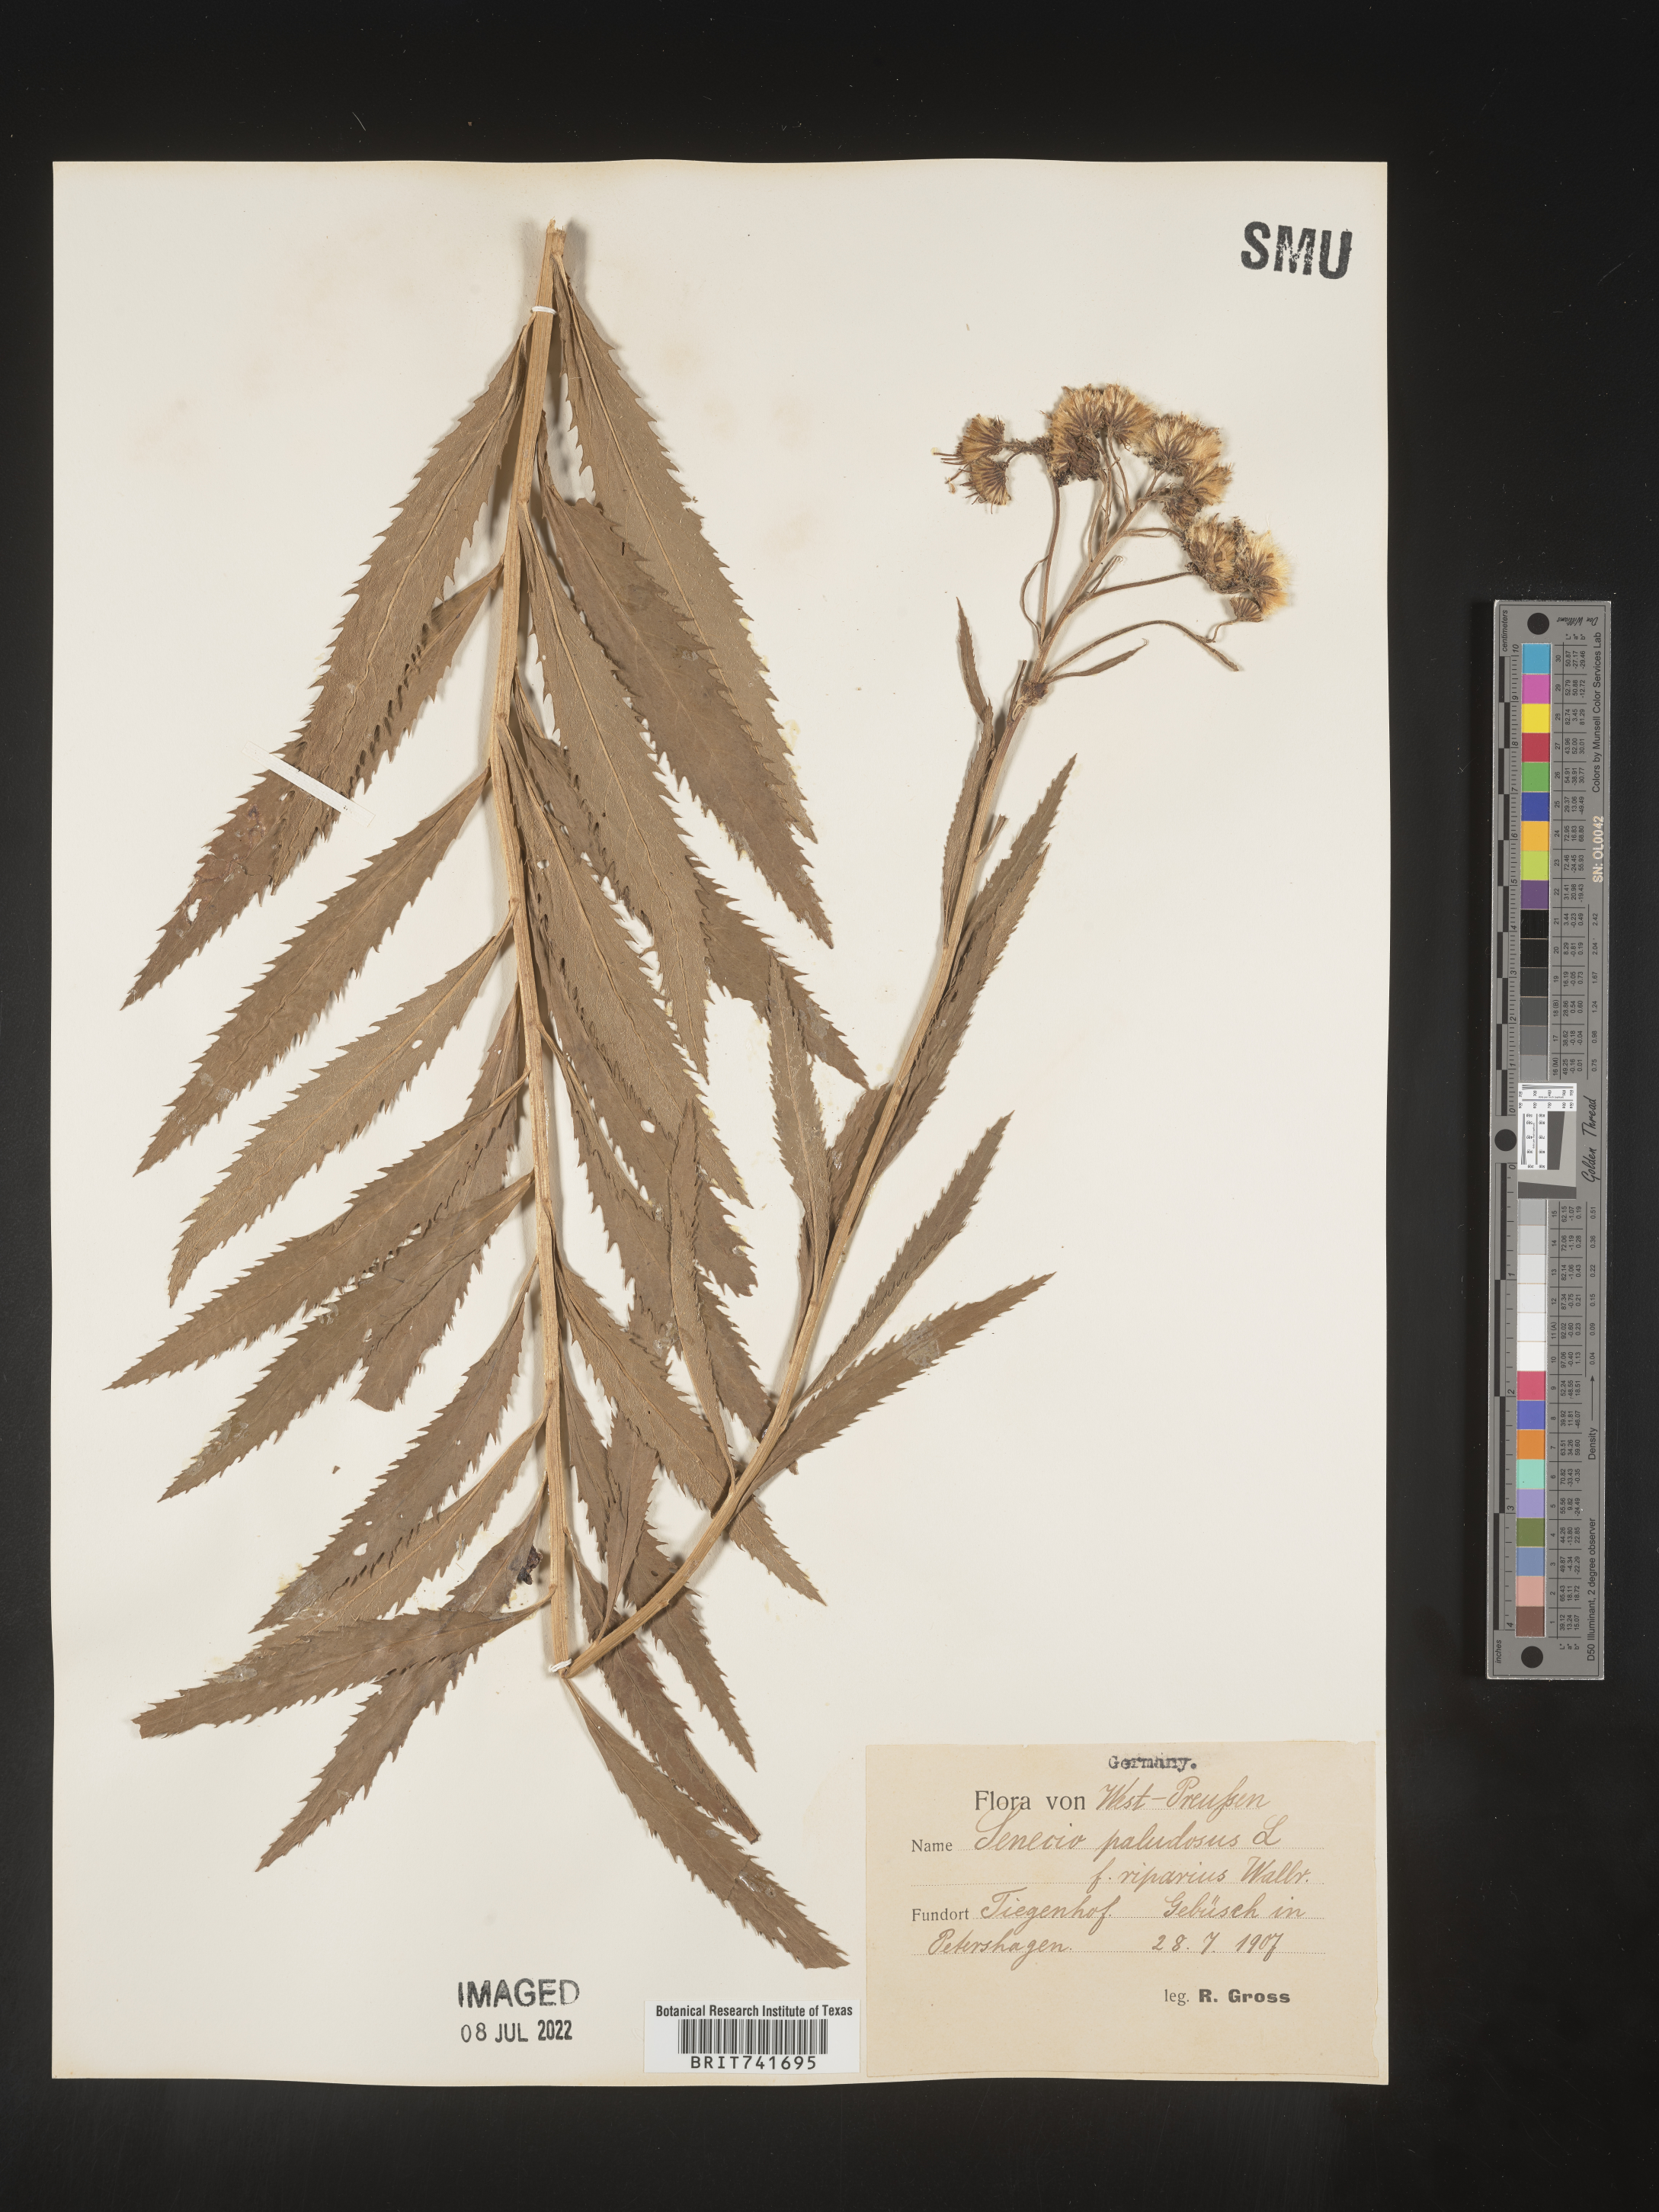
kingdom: Plantae
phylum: Tracheophyta
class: Magnoliopsida
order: Asterales
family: Asteraceae
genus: Senecio
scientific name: Senecio
